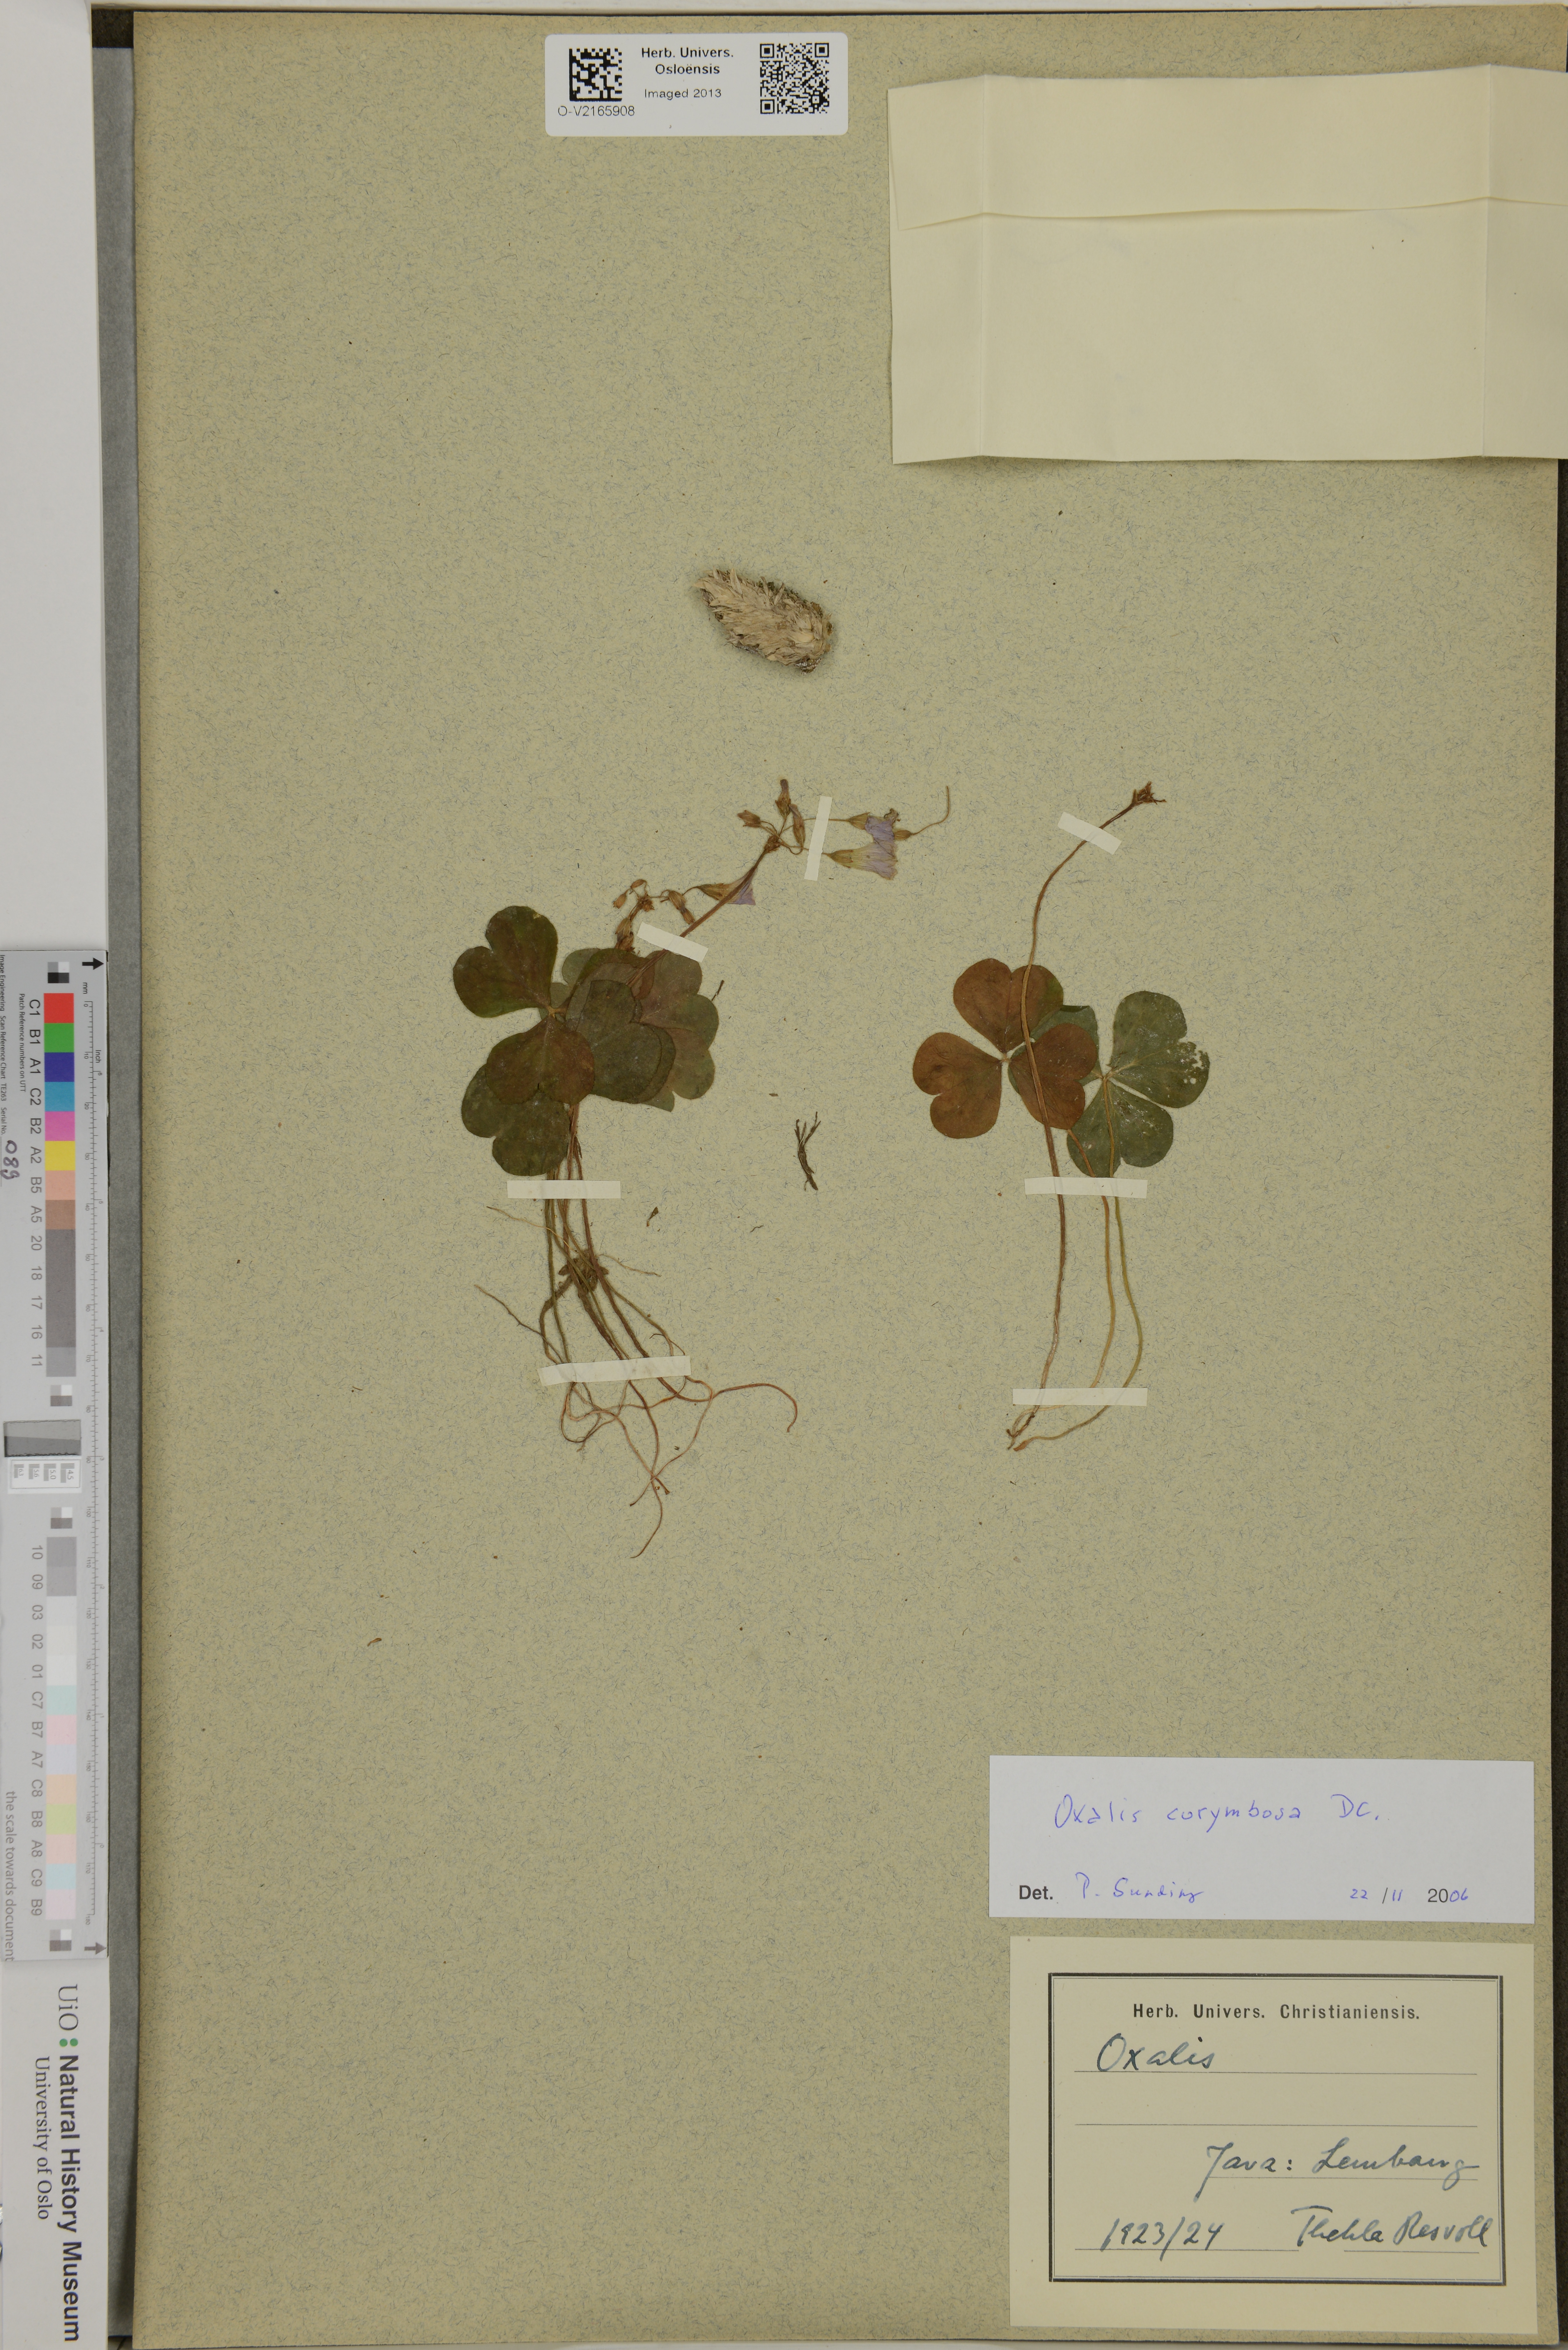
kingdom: Plantae
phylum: Tracheophyta
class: Magnoliopsida
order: Oxalidales
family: Oxalidaceae
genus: Oxalis
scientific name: Oxalis debilis
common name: Large-flowered pink-sorrel
